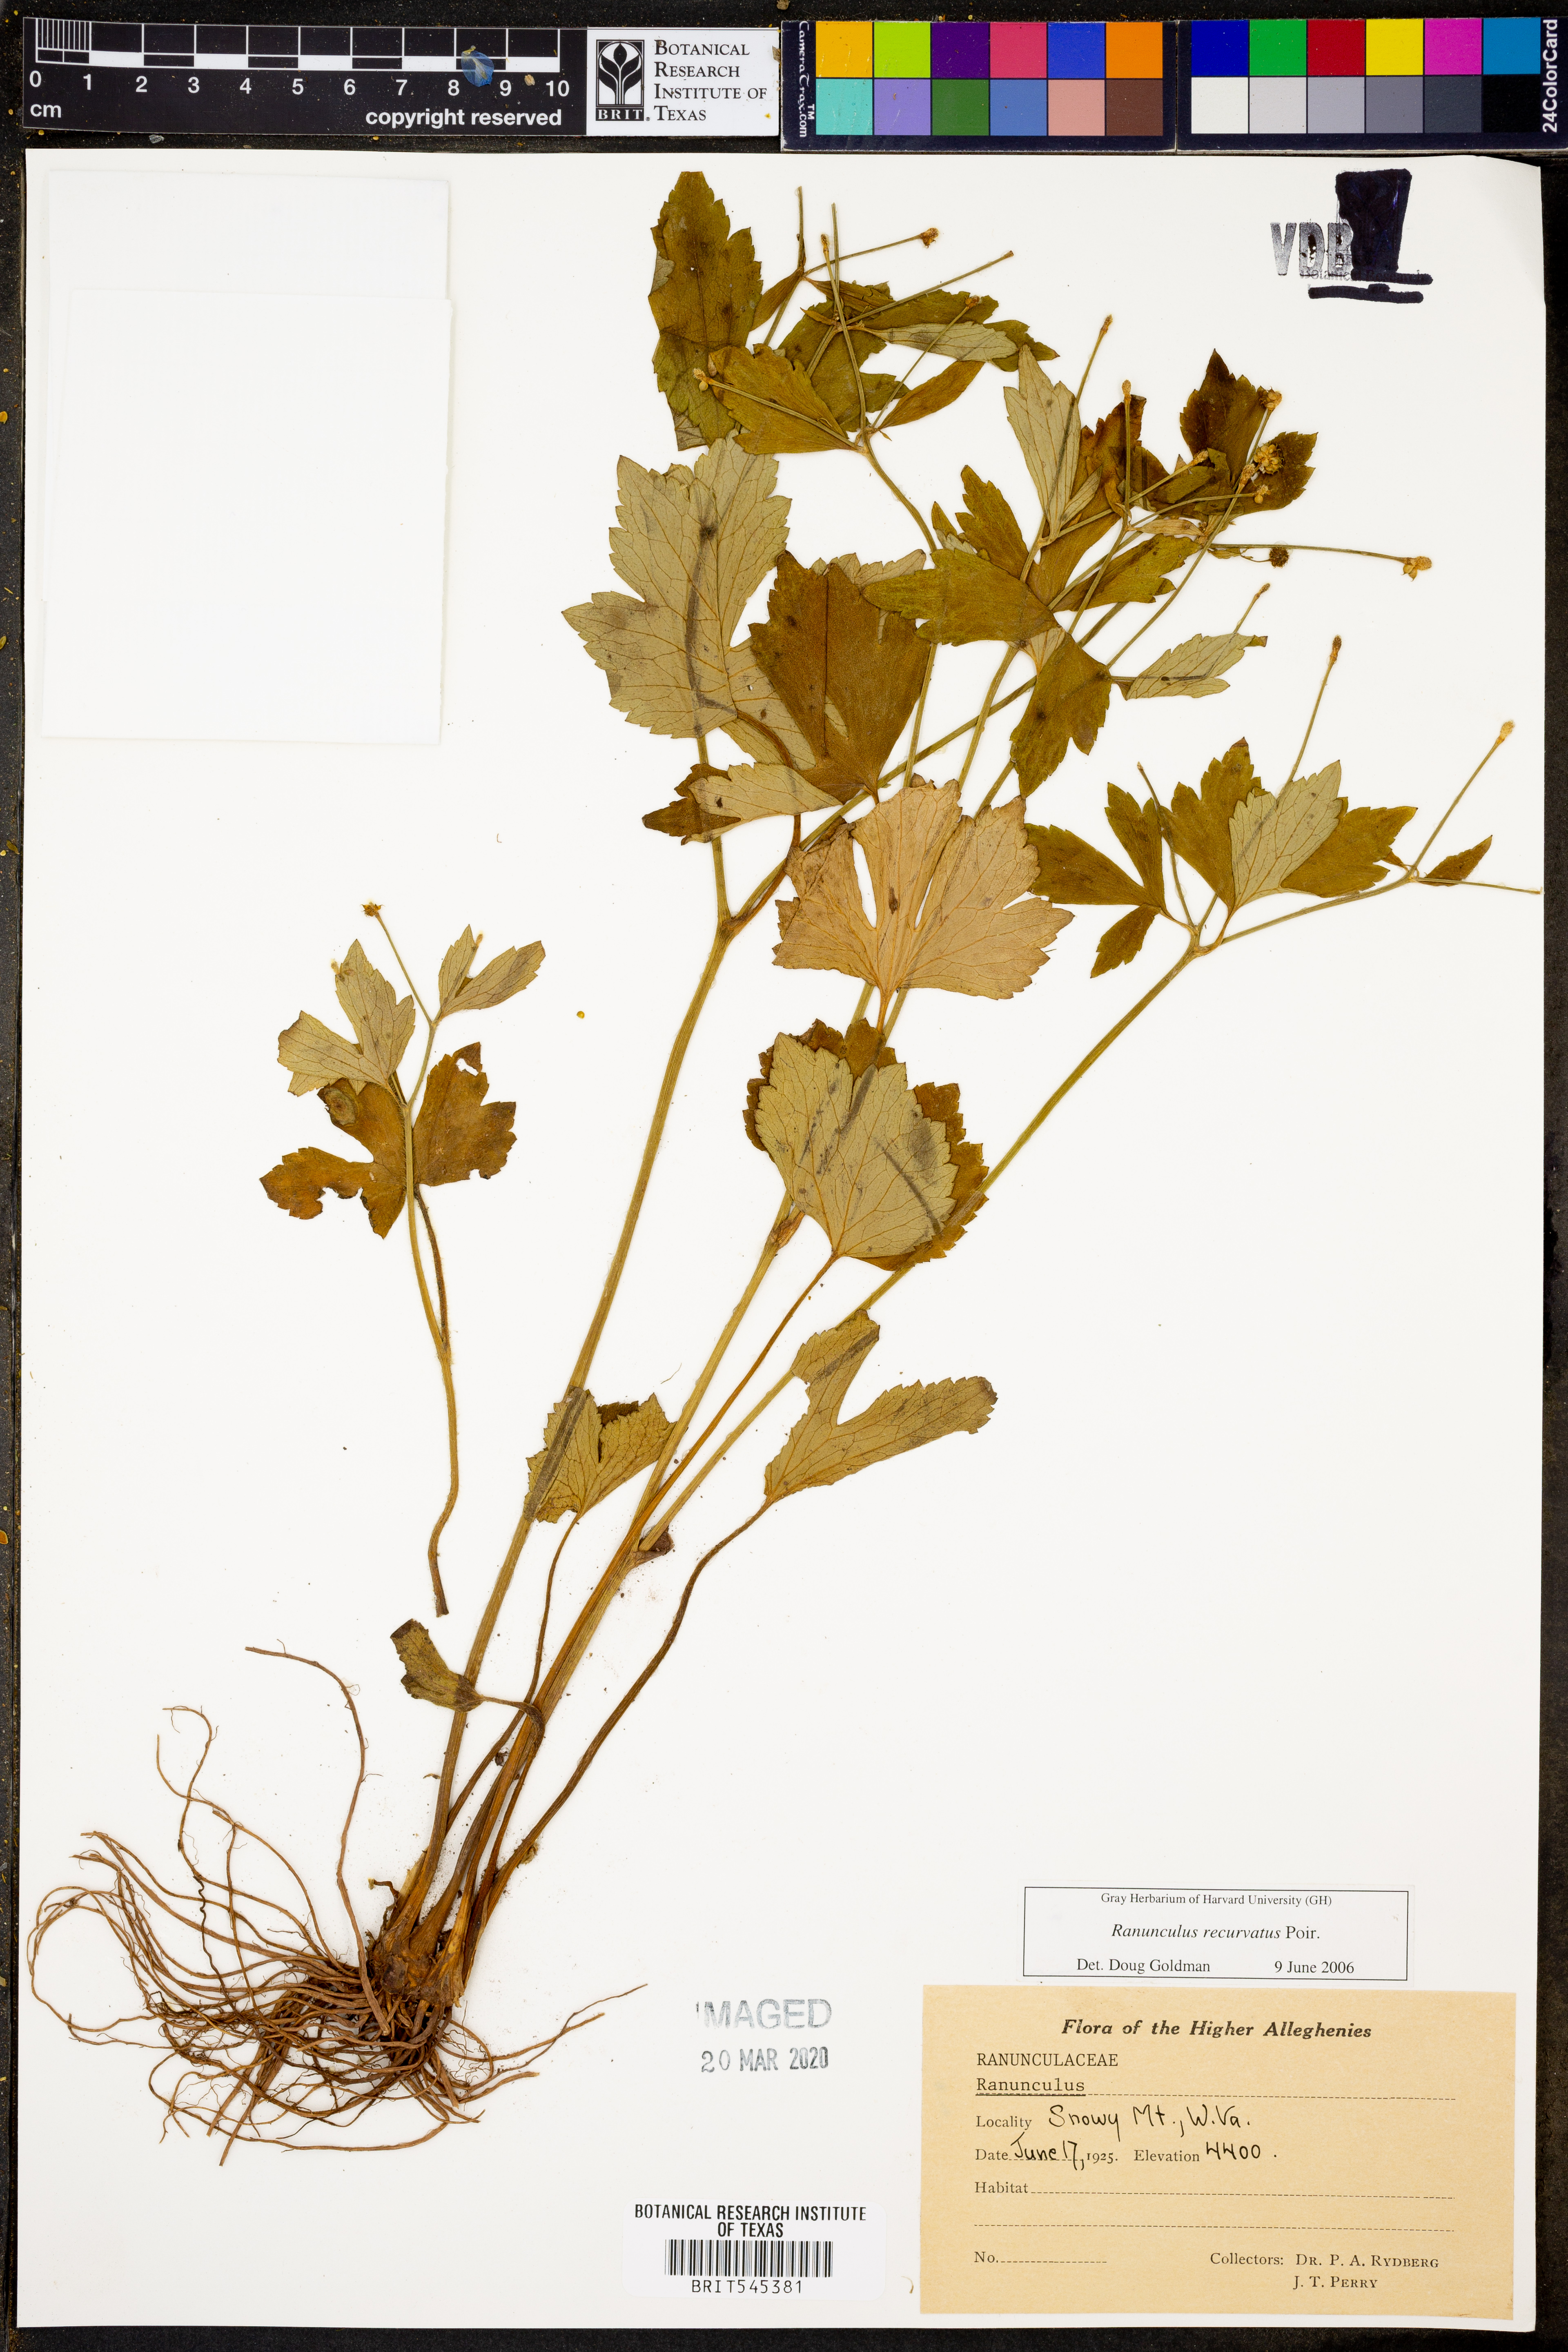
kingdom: Plantae
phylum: Tracheophyta
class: Magnoliopsida
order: Ranunculales
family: Ranunculaceae
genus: Ranunculus
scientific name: Ranunculus recurvatus
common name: Blisterwort
